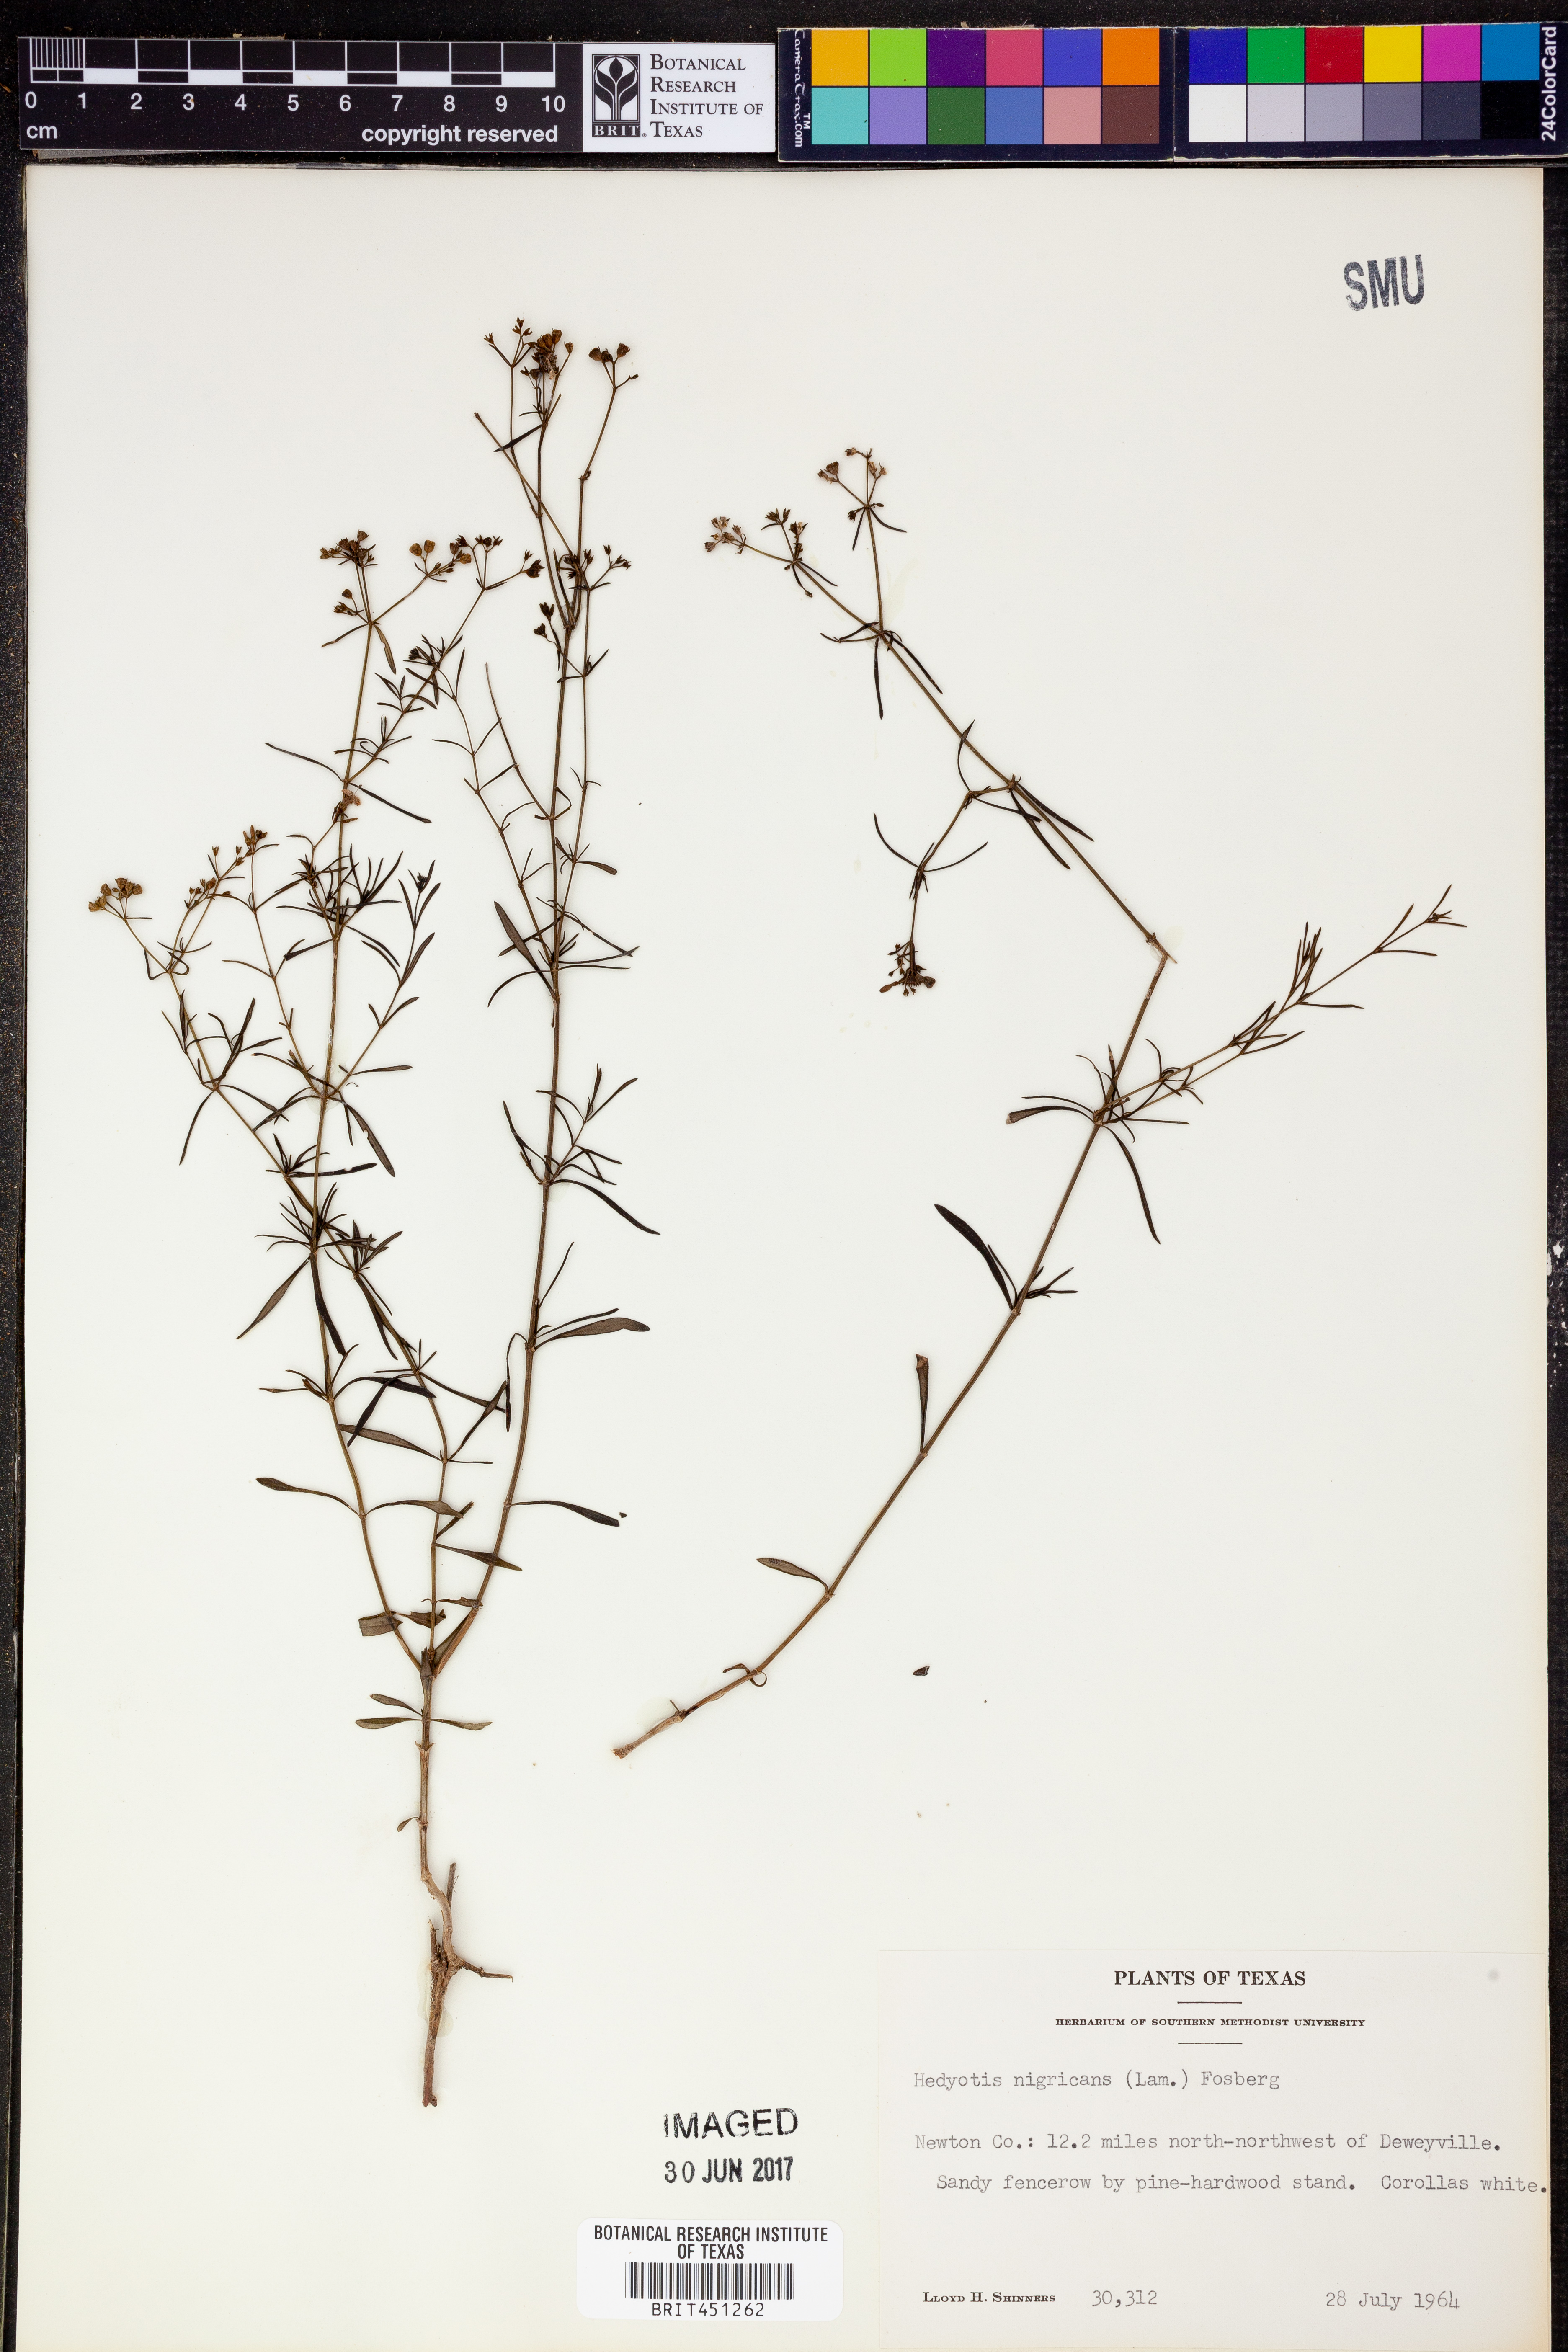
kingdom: Plantae
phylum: Tracheophyta
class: Magnoliopsida
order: Gentianales
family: Rubiaceae
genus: Stenaria
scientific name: Stenaria nigricans
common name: Diamondflowers
